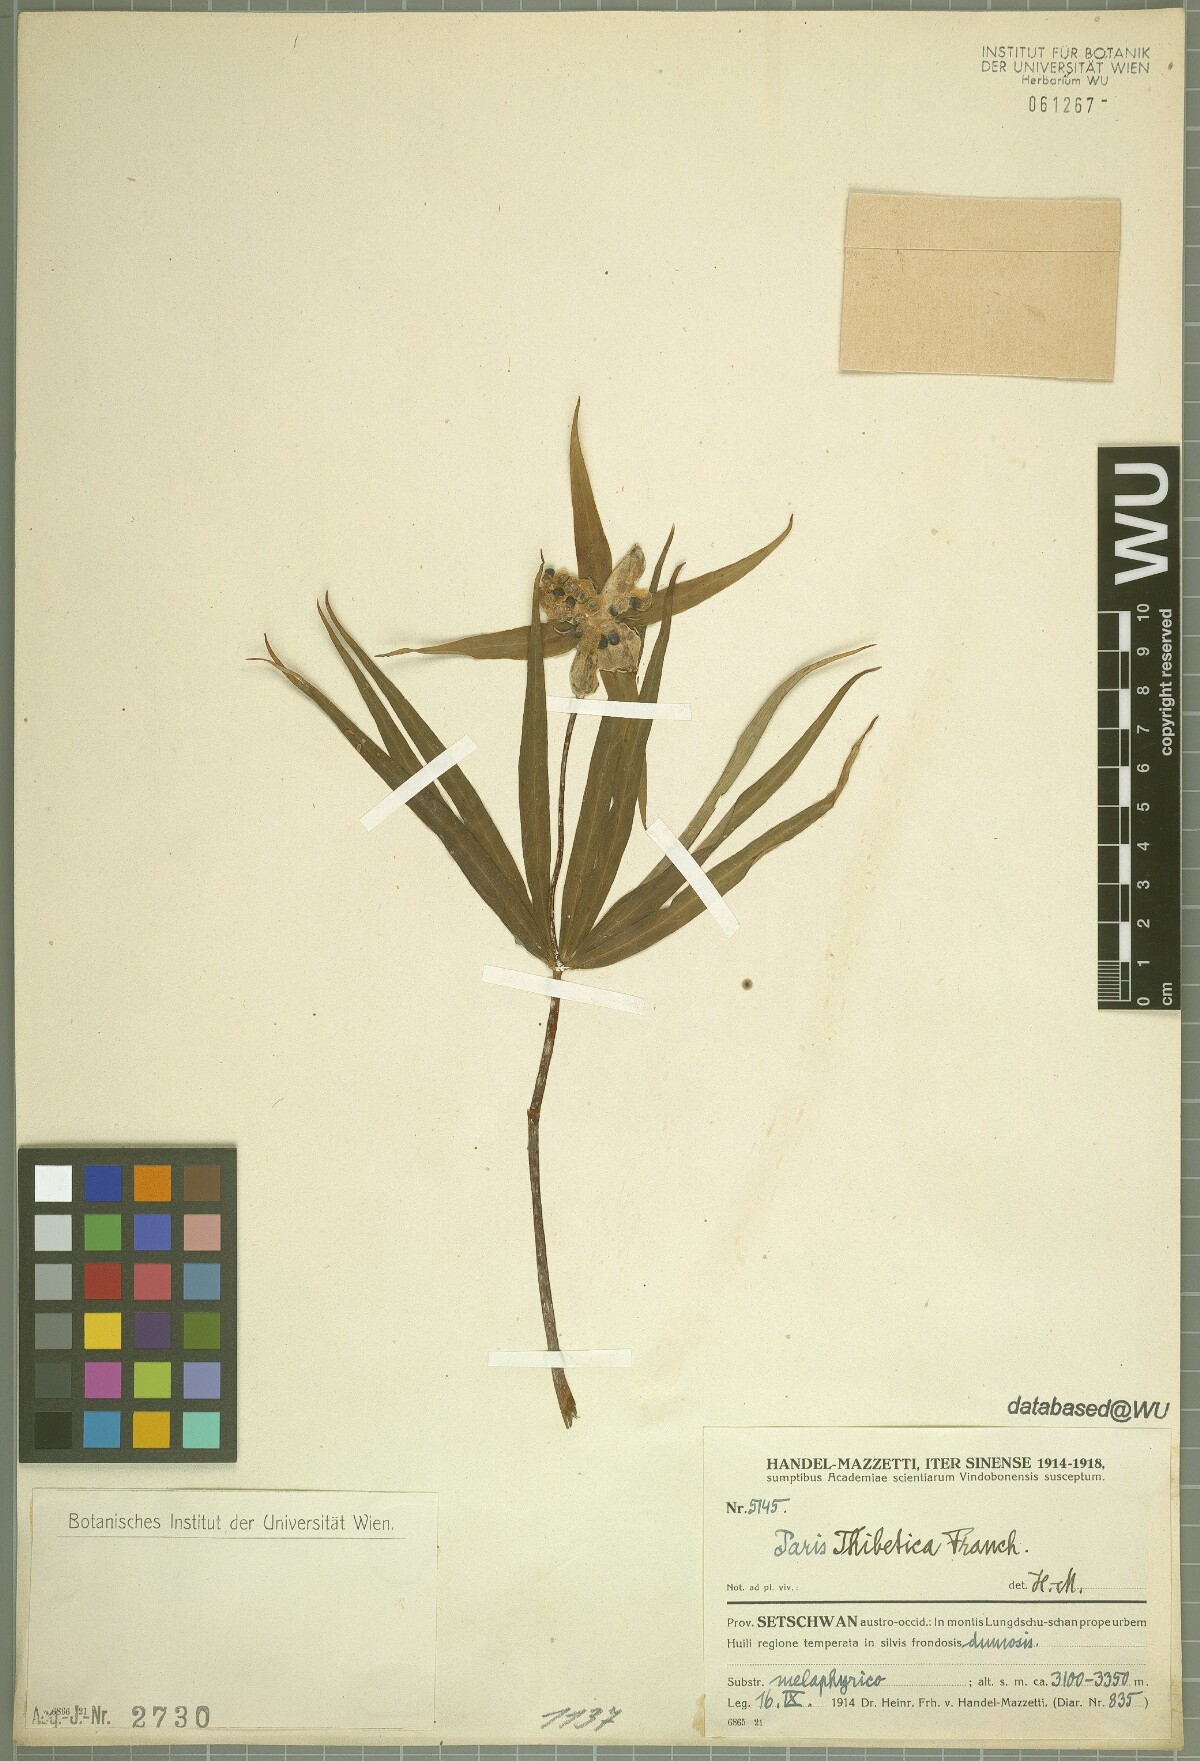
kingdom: Plantae
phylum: Tracheophyta
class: Liliopsida
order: Liliales
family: Melanthiaceae
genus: Paris
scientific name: Paris thibetica
